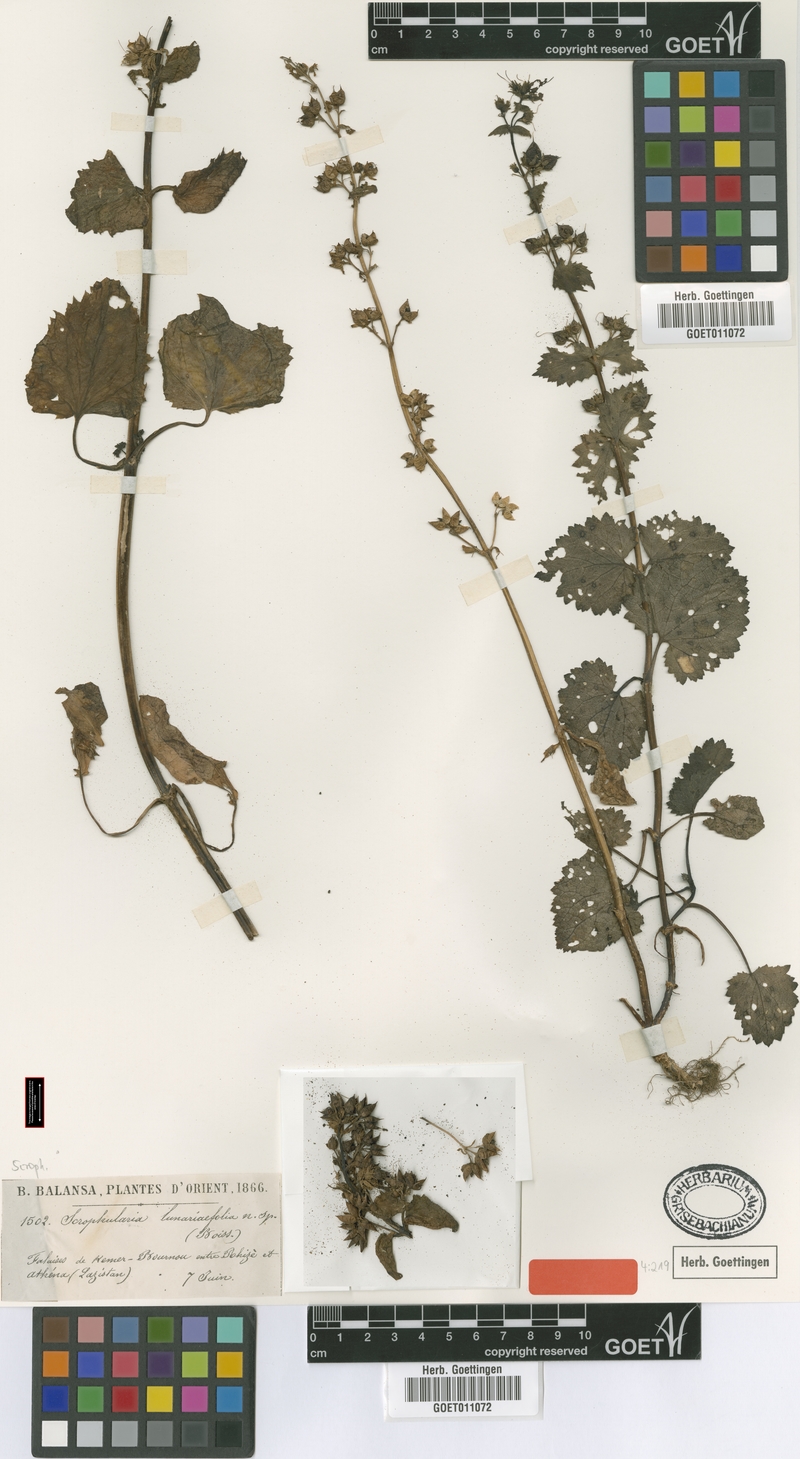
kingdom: Plantae
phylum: Tracheophyta
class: Magnoliopsida
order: Lamiales
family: Scrophulariaceae
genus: Scrophularia
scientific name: Scrophularia chrysantha
